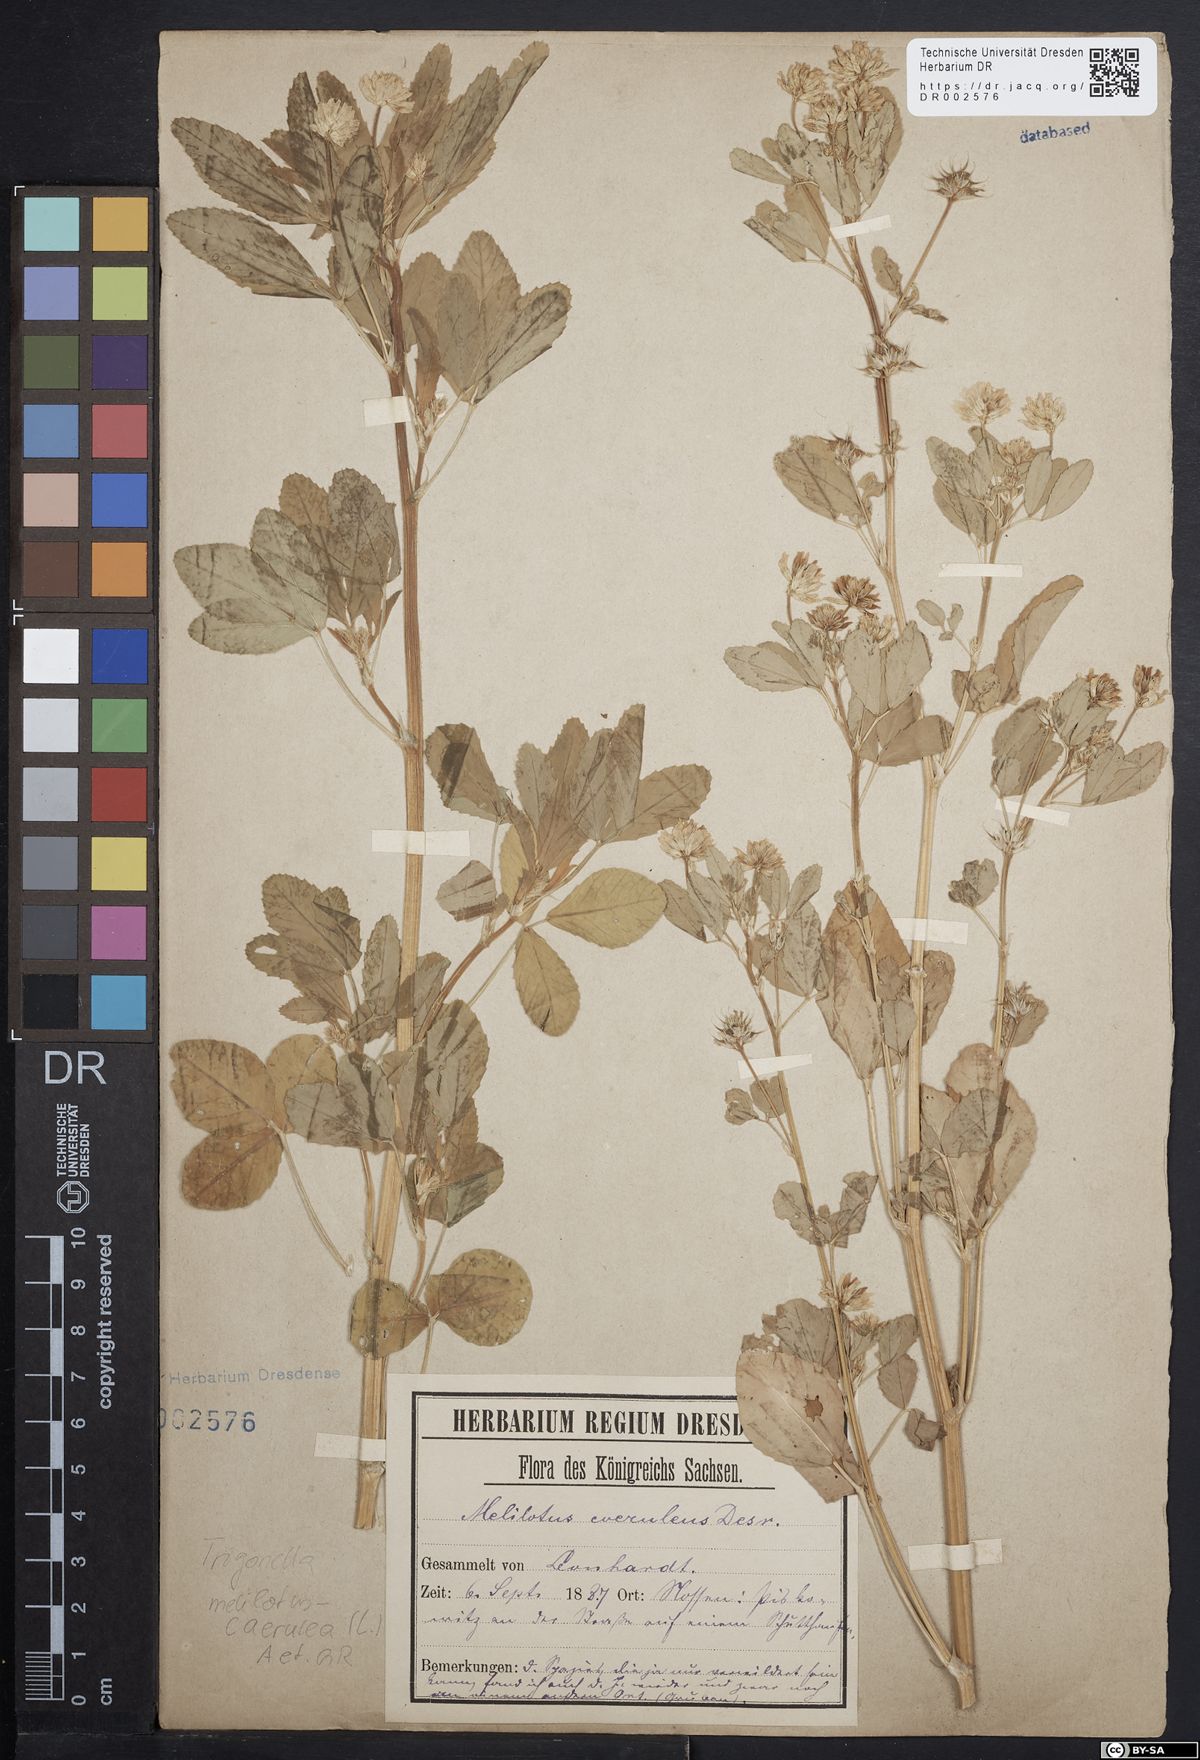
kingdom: Plantae
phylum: Tracheophyta
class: Magnoliopsida
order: Fabales
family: Fabaceae
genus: Trigonella
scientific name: Trigonella caerulea
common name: Blue fenugreek
